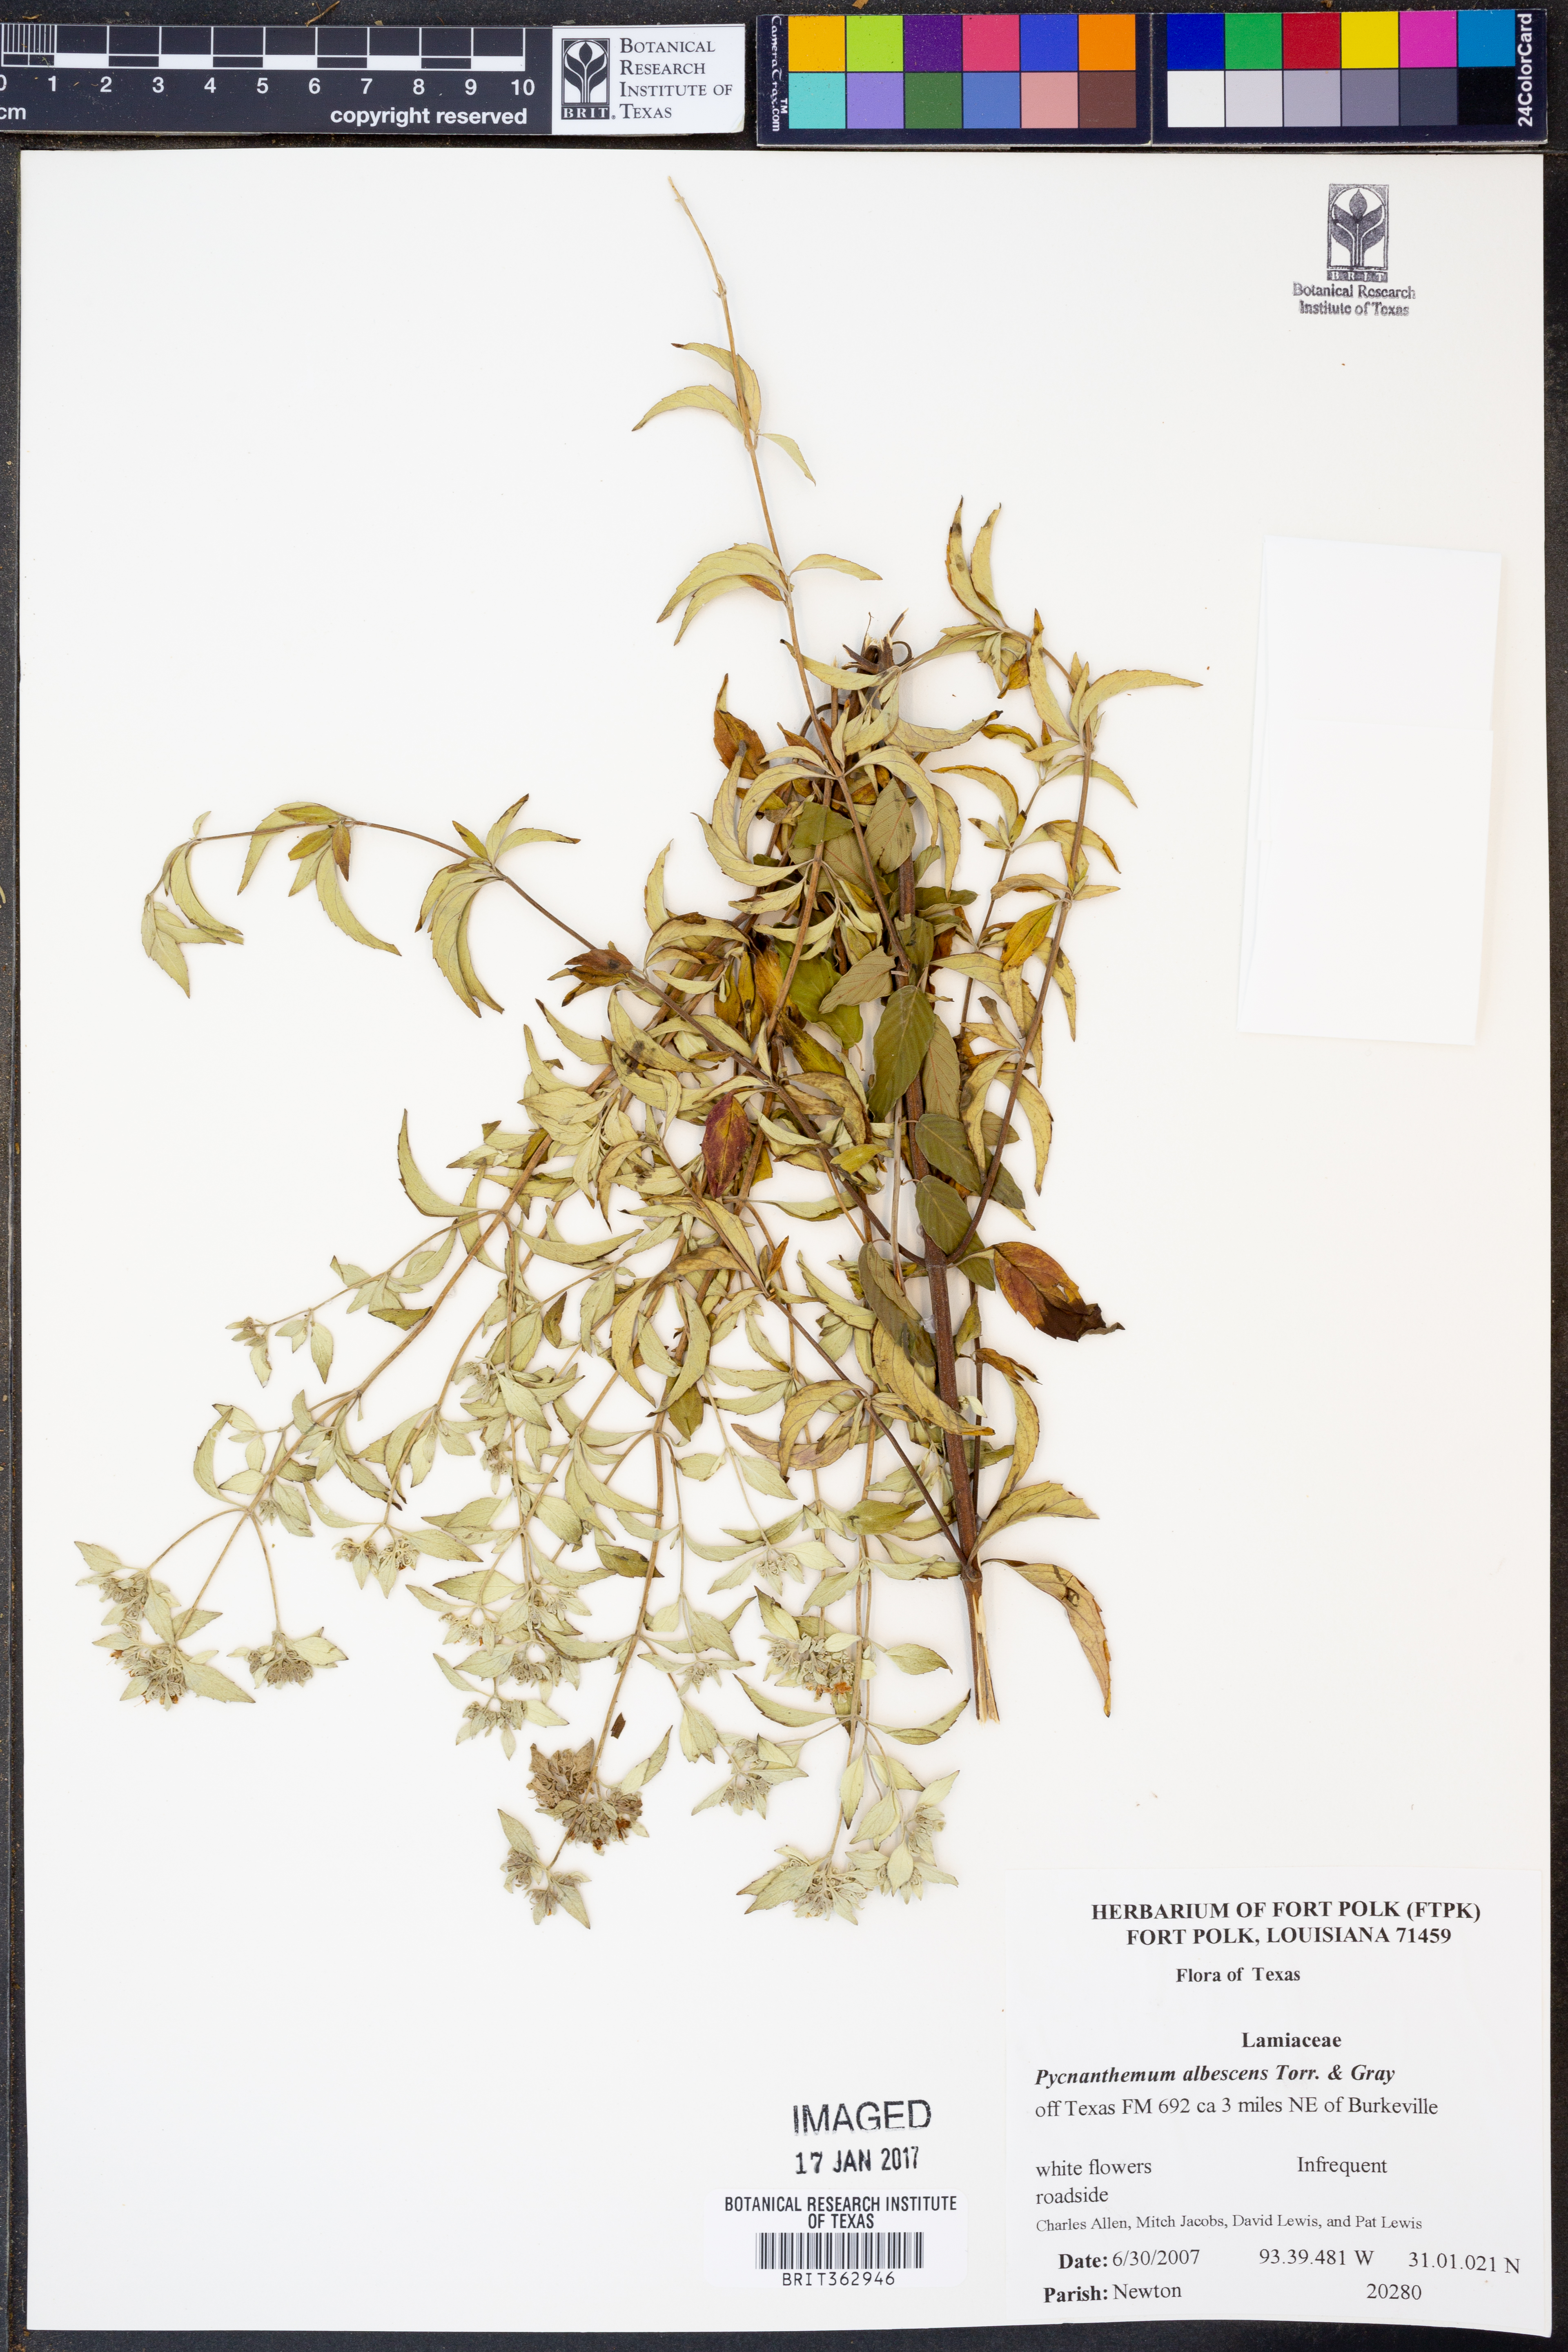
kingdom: Plantae
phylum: Tracheophyta
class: Magnoliopsida
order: Lamiales
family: Lamiaceae
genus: Pycnanthemum
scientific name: Pycnanthemum albescens
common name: White-leaf mountain-mint
